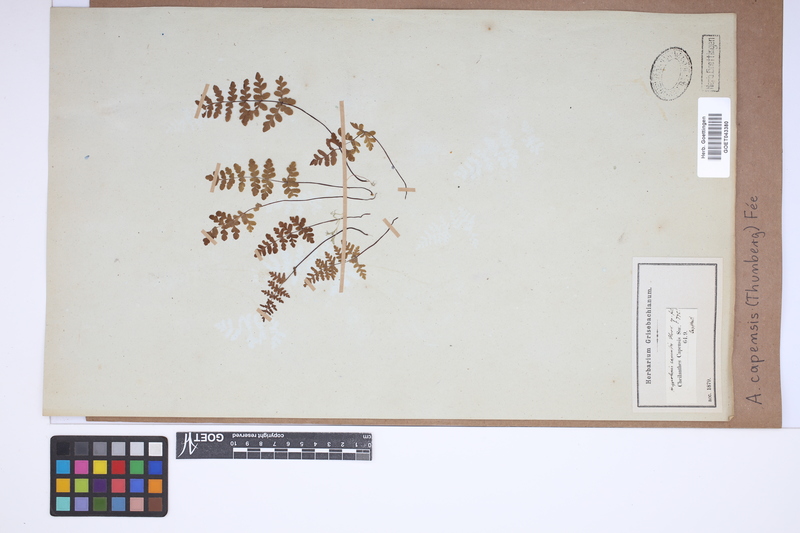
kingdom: Plantae
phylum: Tracheophyta
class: Polypodiopsida
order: Polypodiales
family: Pteridaceae
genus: Cheilanthes
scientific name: Cheilanthes capensis
